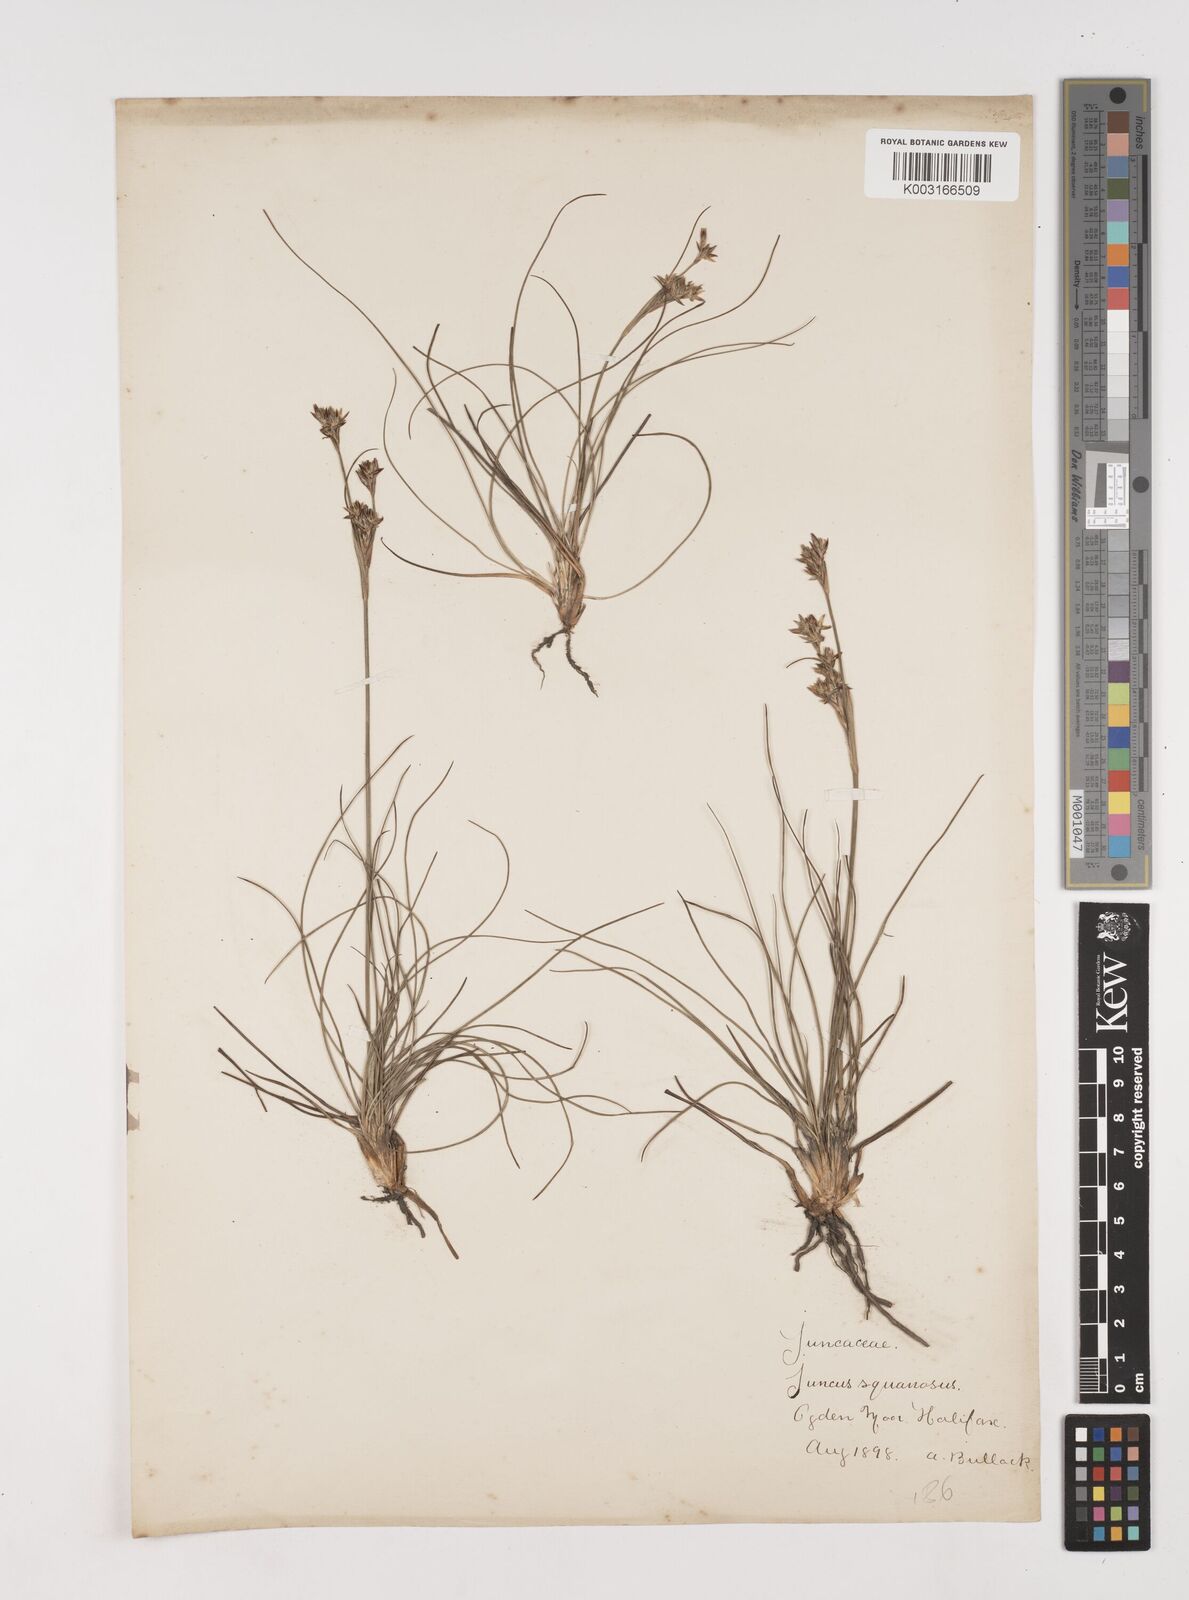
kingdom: Plantae
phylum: Tracheophyta
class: Liliopsida
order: Poales
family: Juncaceae
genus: Juncus
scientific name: Juncus squarrosus
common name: Heath rush
